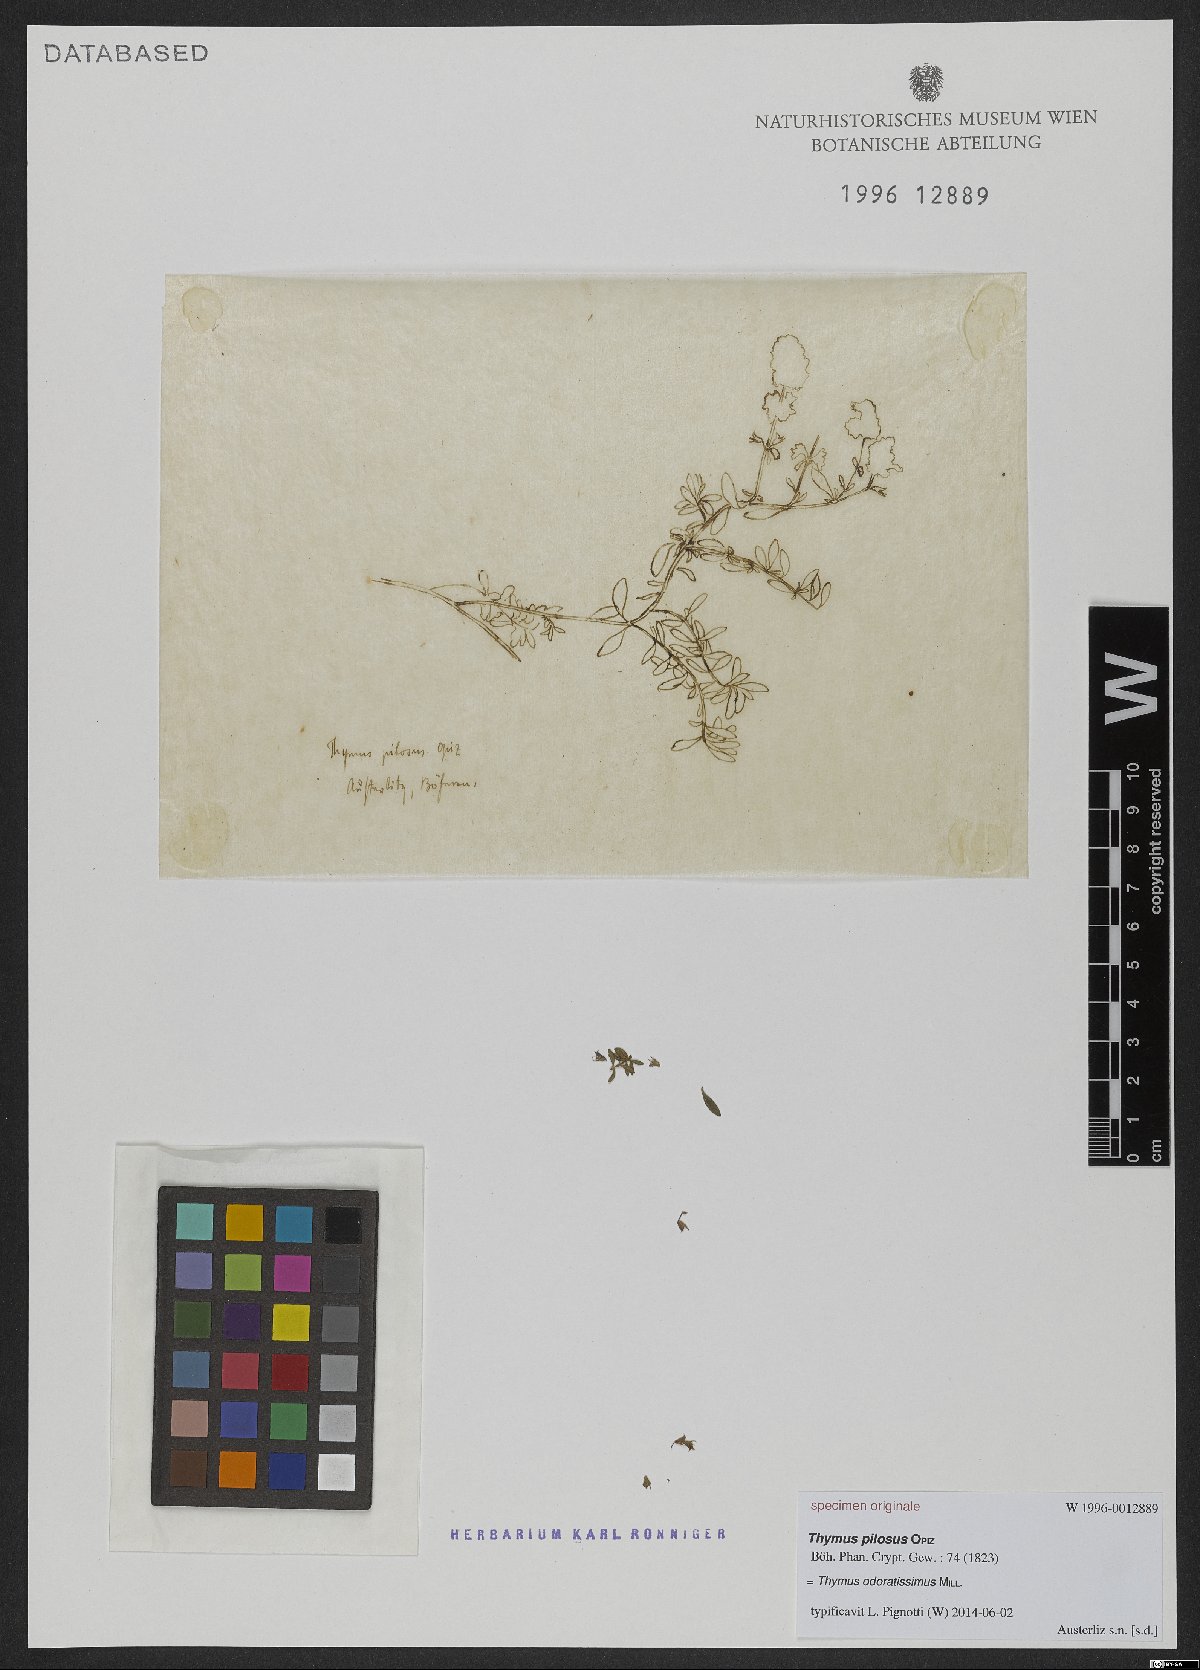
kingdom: Plantae
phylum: Tracheophyta
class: Magnoliopsida
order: Lamiales
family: Lamiaceae
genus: Thymus
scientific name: Thymus odoratissimus
